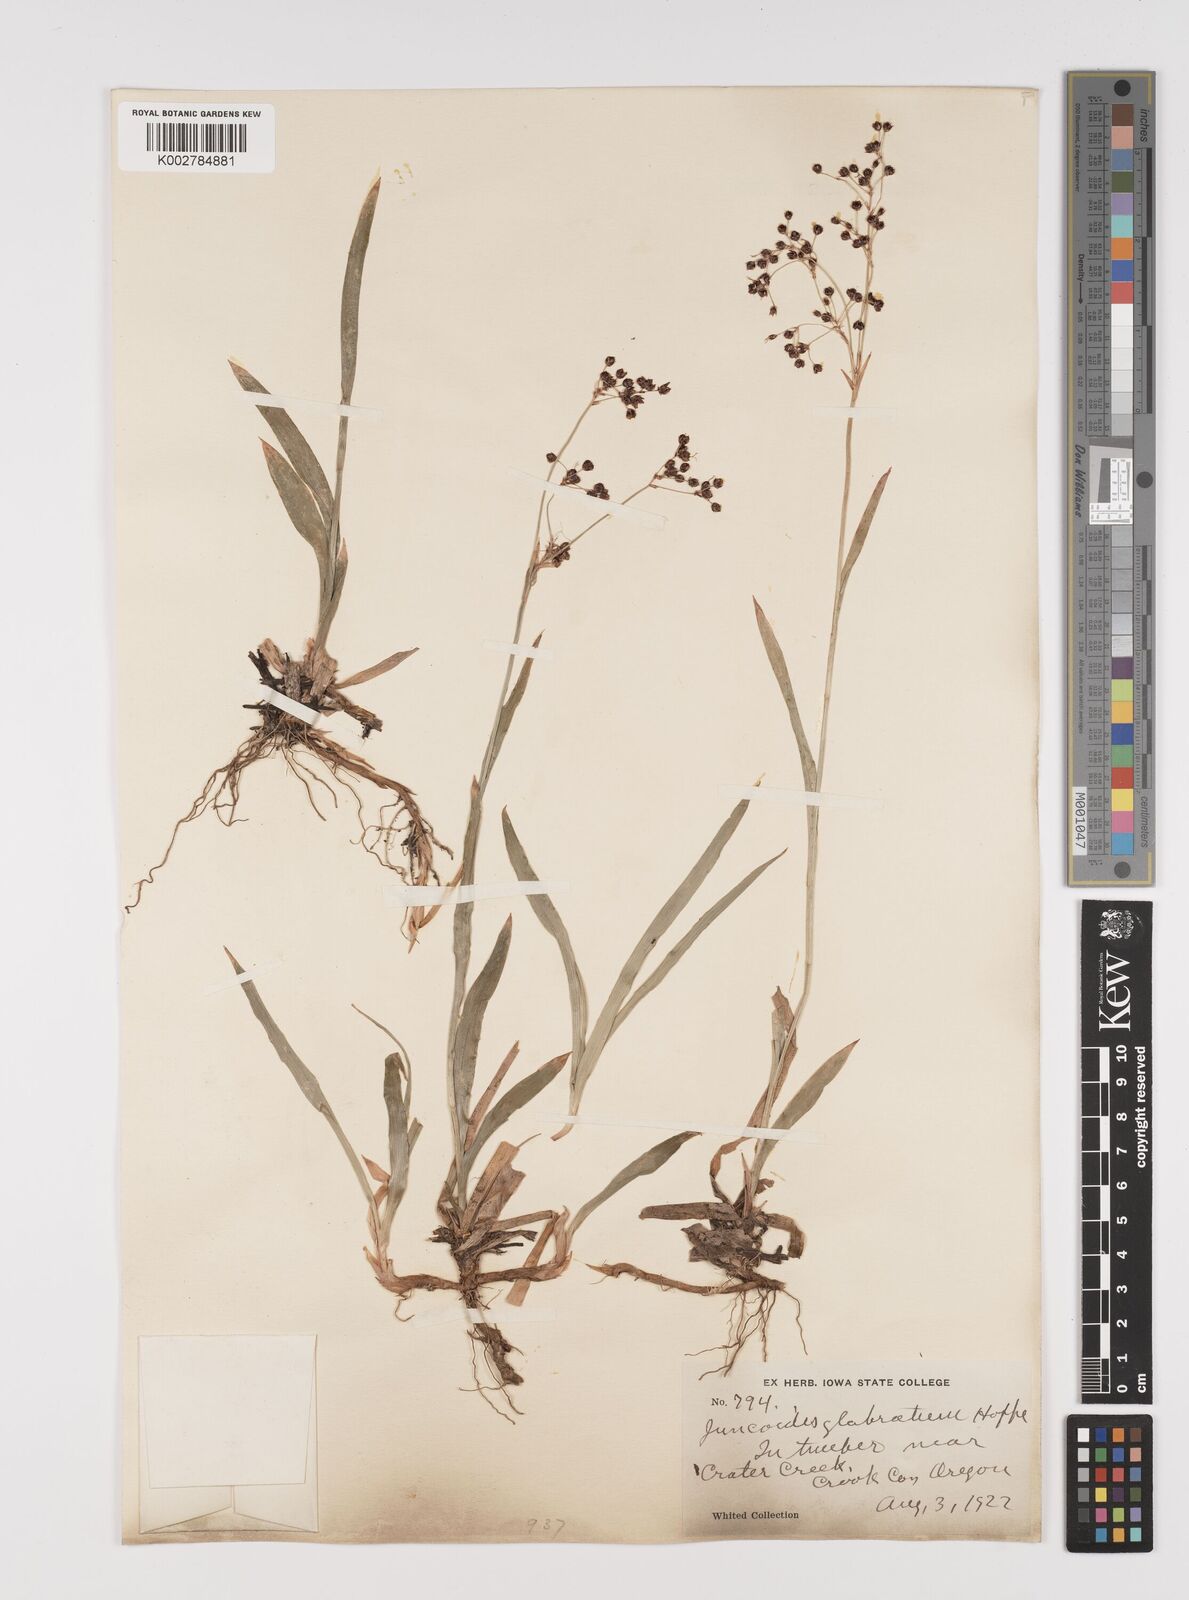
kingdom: Plantae
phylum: Tracheophyta
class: Liliopsida
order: Poales
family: Juncaceae
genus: Luzula
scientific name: Luzula glabrata
